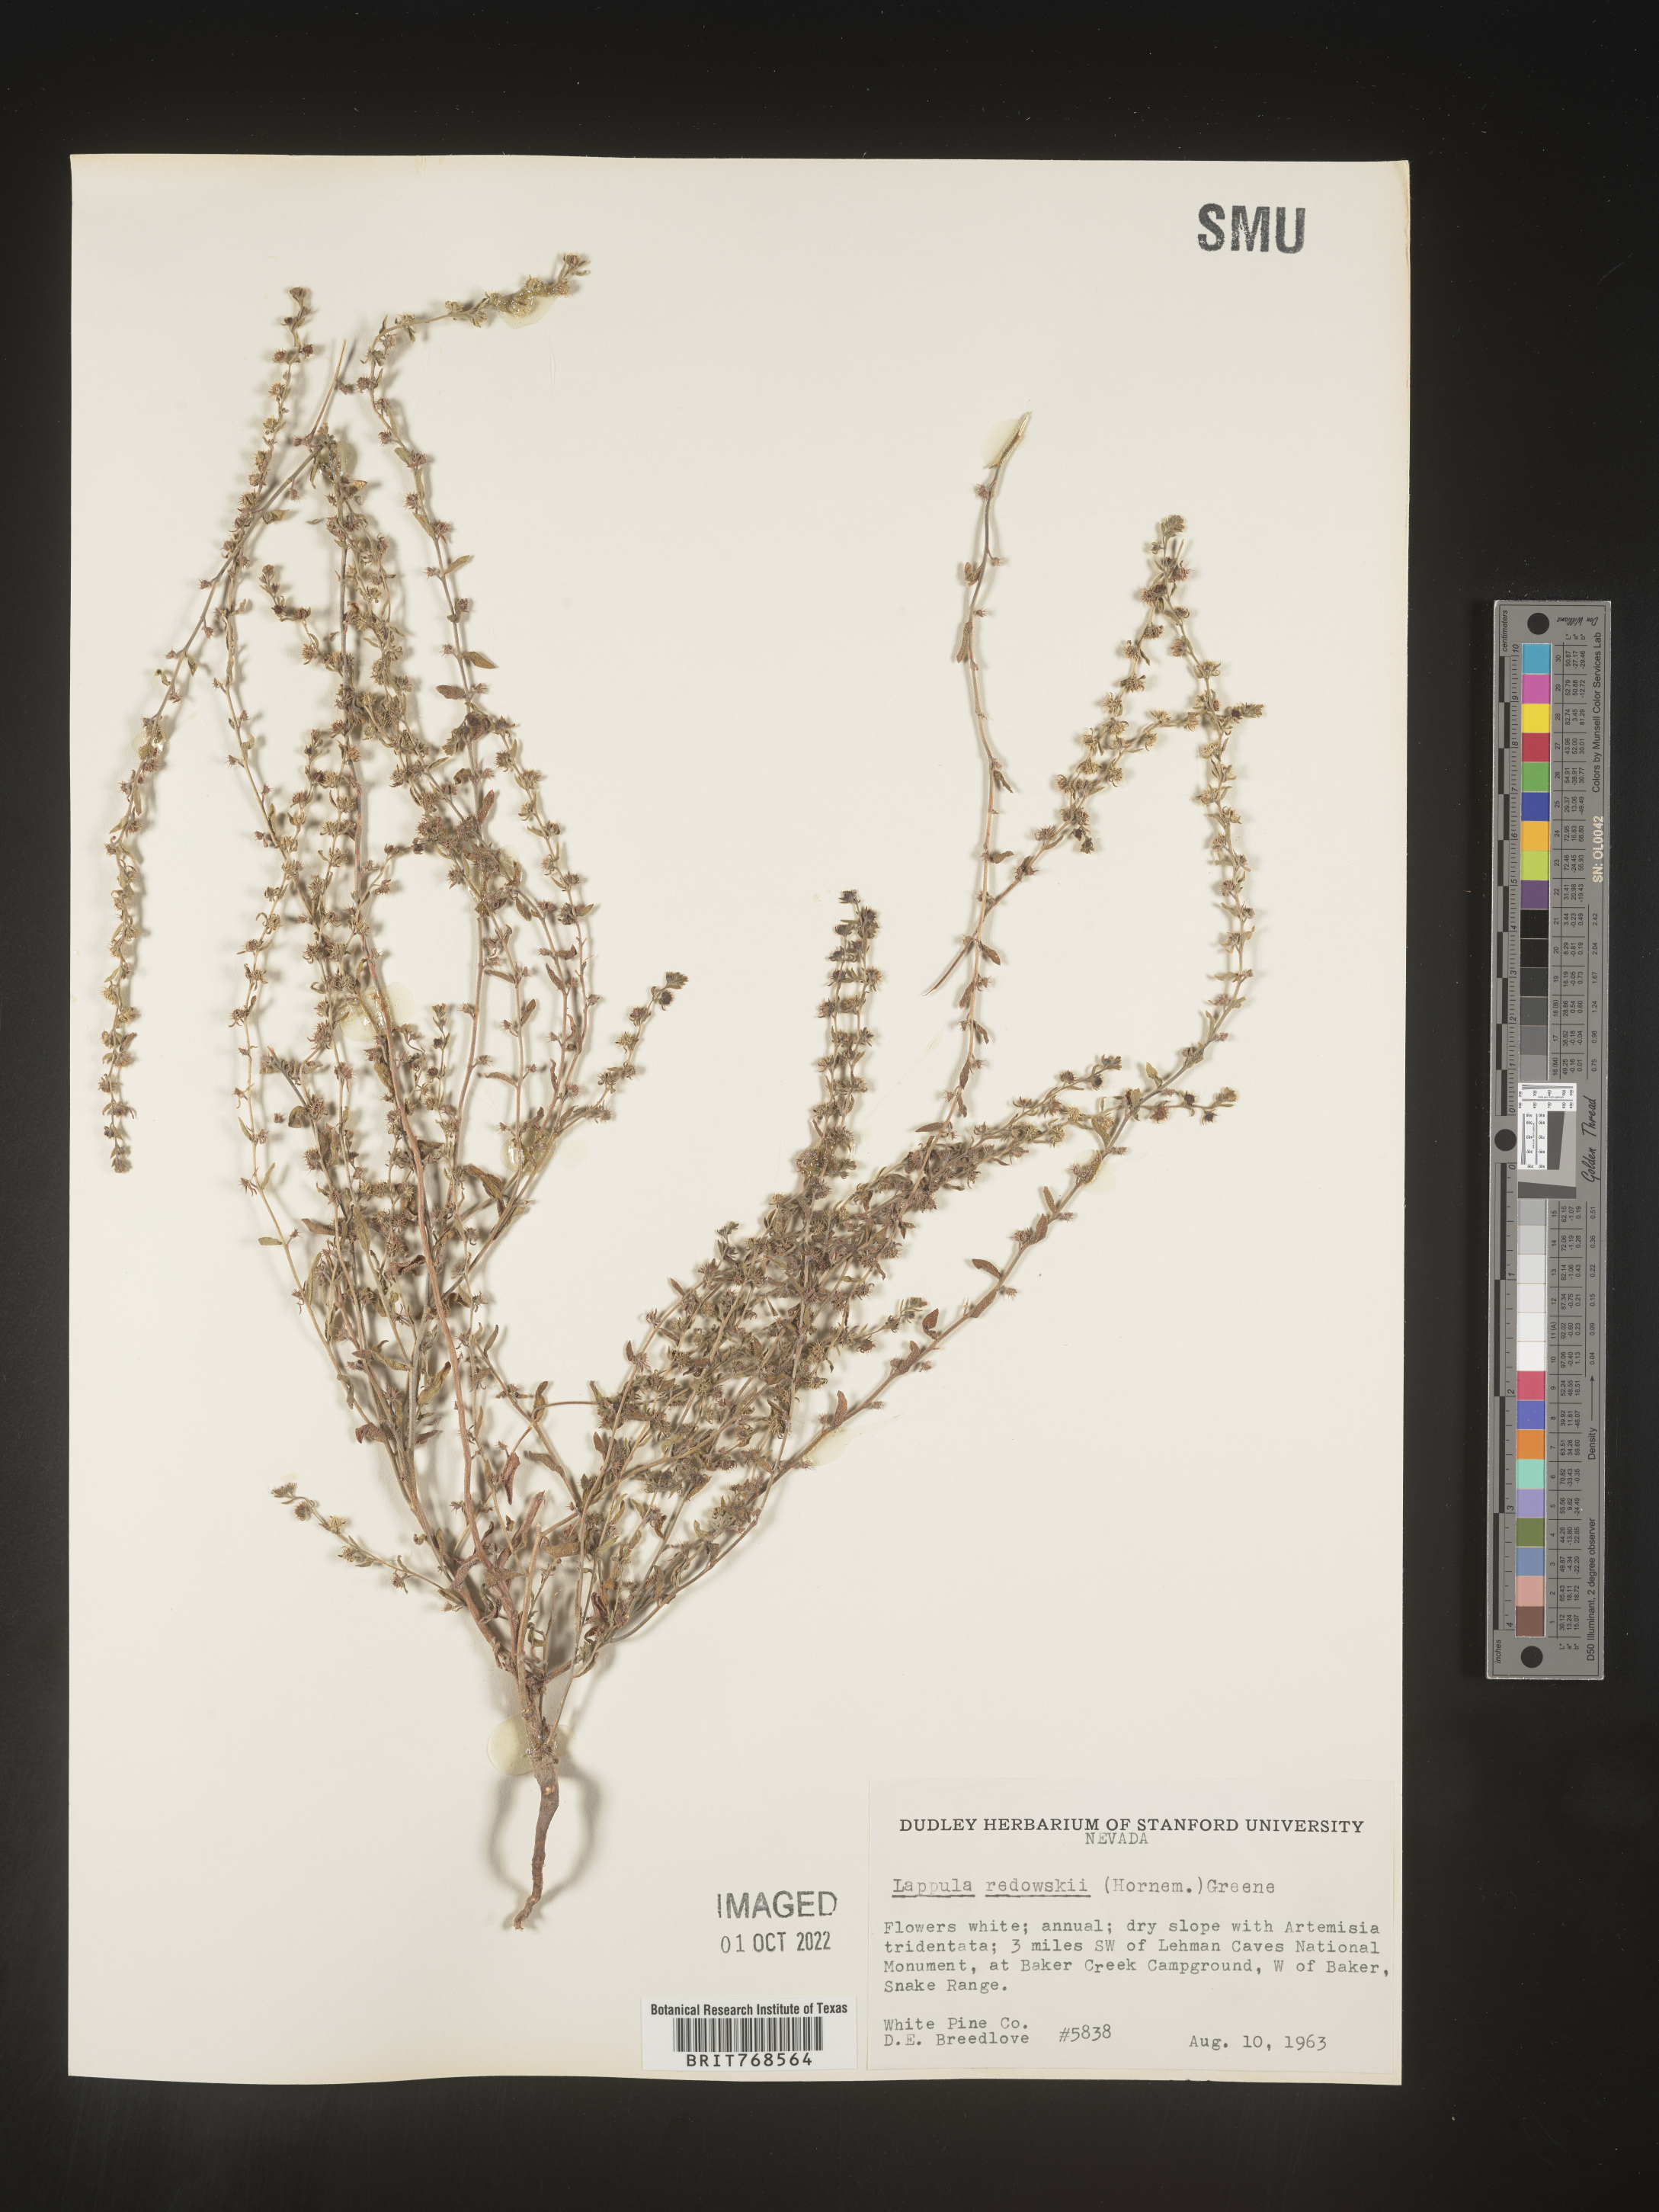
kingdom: Plantae
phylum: Tracheophyta
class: Magnoliopsida
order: Boraginales
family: Boraginaceae
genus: Lappula
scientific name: Lappula redowskii
